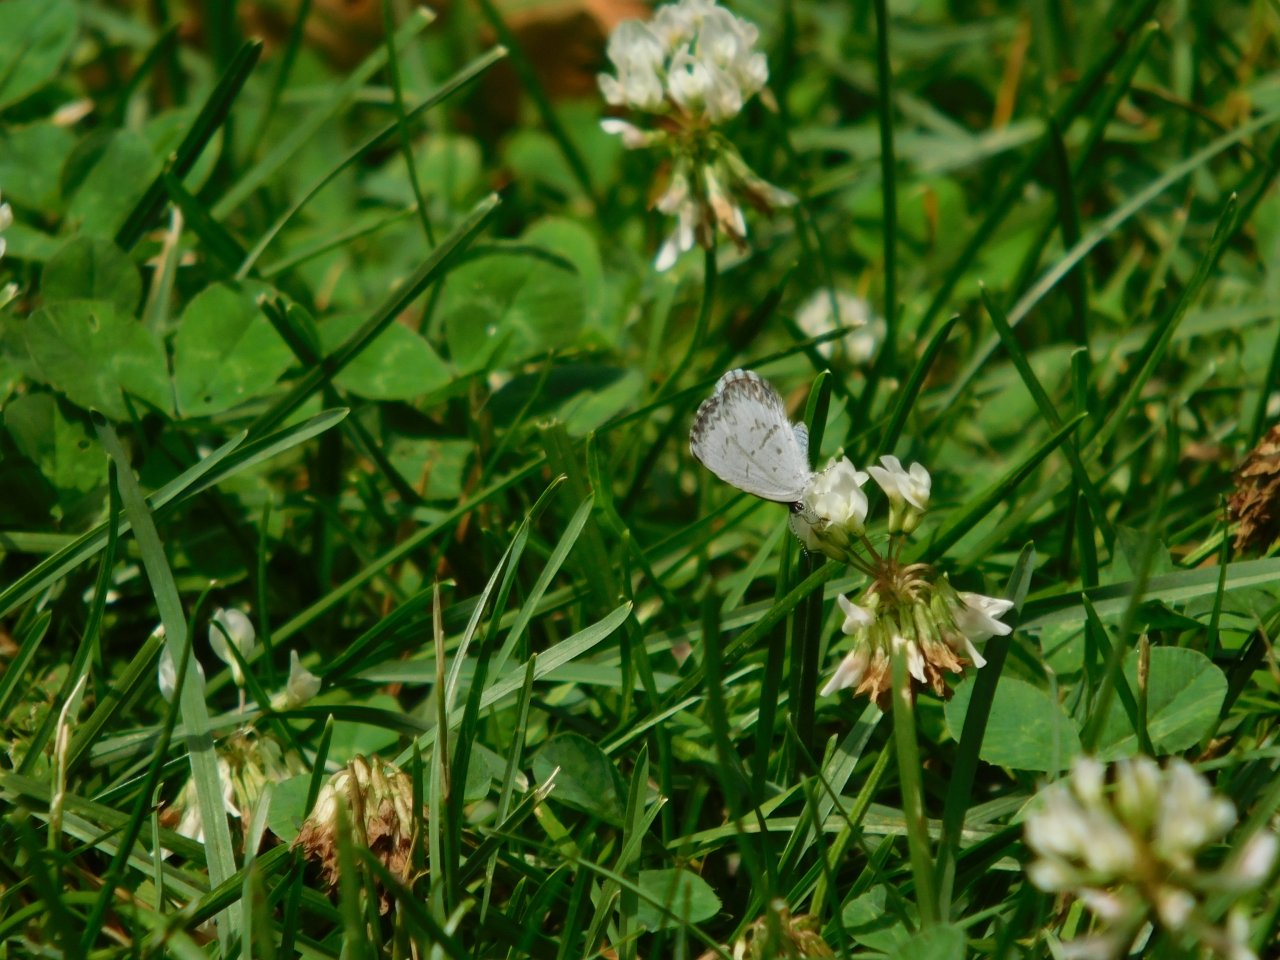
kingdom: Animalia
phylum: Arthropoda
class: Insecta
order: Lepidoptera
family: Lycaenidae
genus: Celastrina
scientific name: Celastrina lucia
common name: Northern Spring Azure
